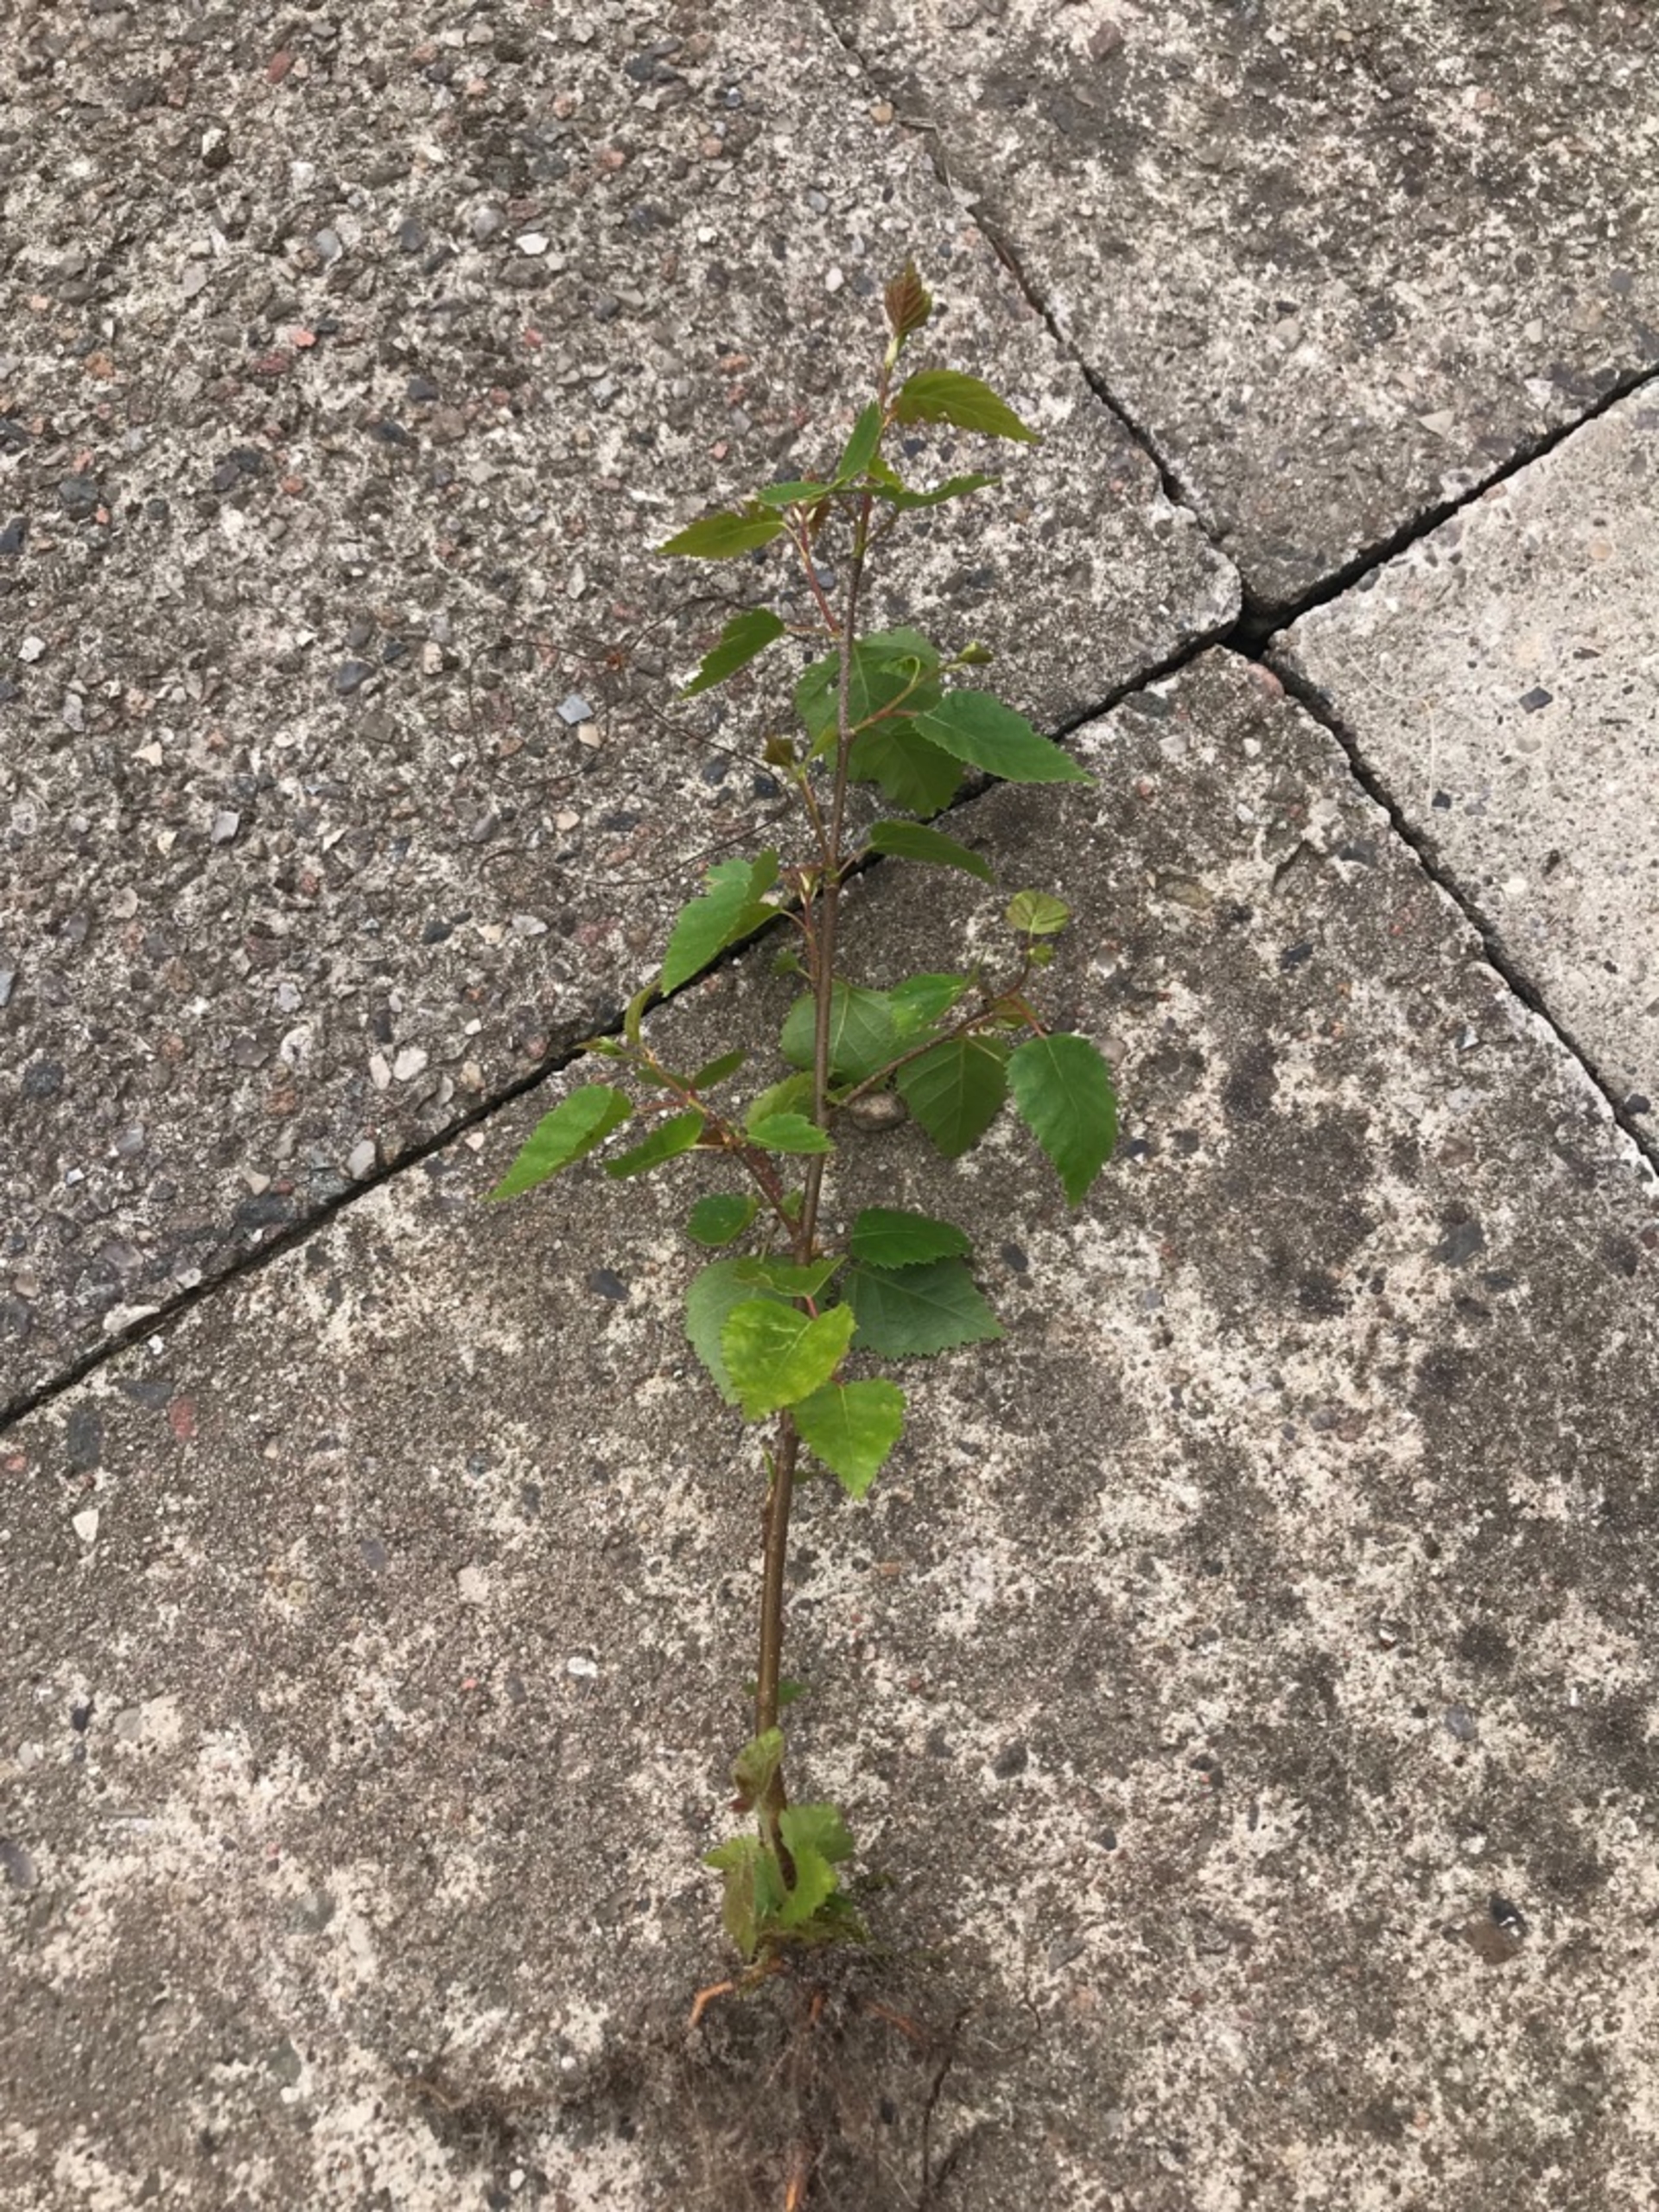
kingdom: Plantae
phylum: Tracheophyta
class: Magnoliopsida
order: Fagales
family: Betulaceae
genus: Betula
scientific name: Betula pendula
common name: Vorte-birk
